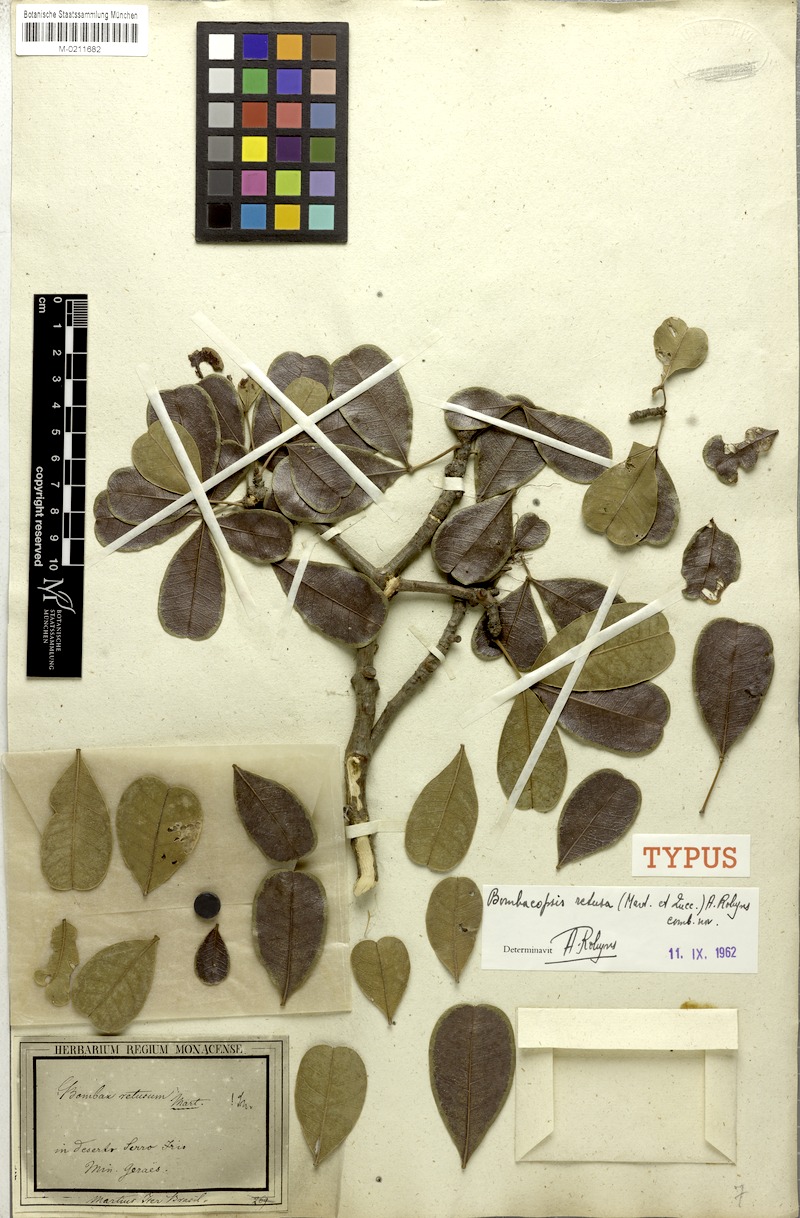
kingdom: Plantae
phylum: Tracheophyta
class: Magnoliopsida
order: Malvales
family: Malvaceae
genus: Pachira
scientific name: Pachira retusa
